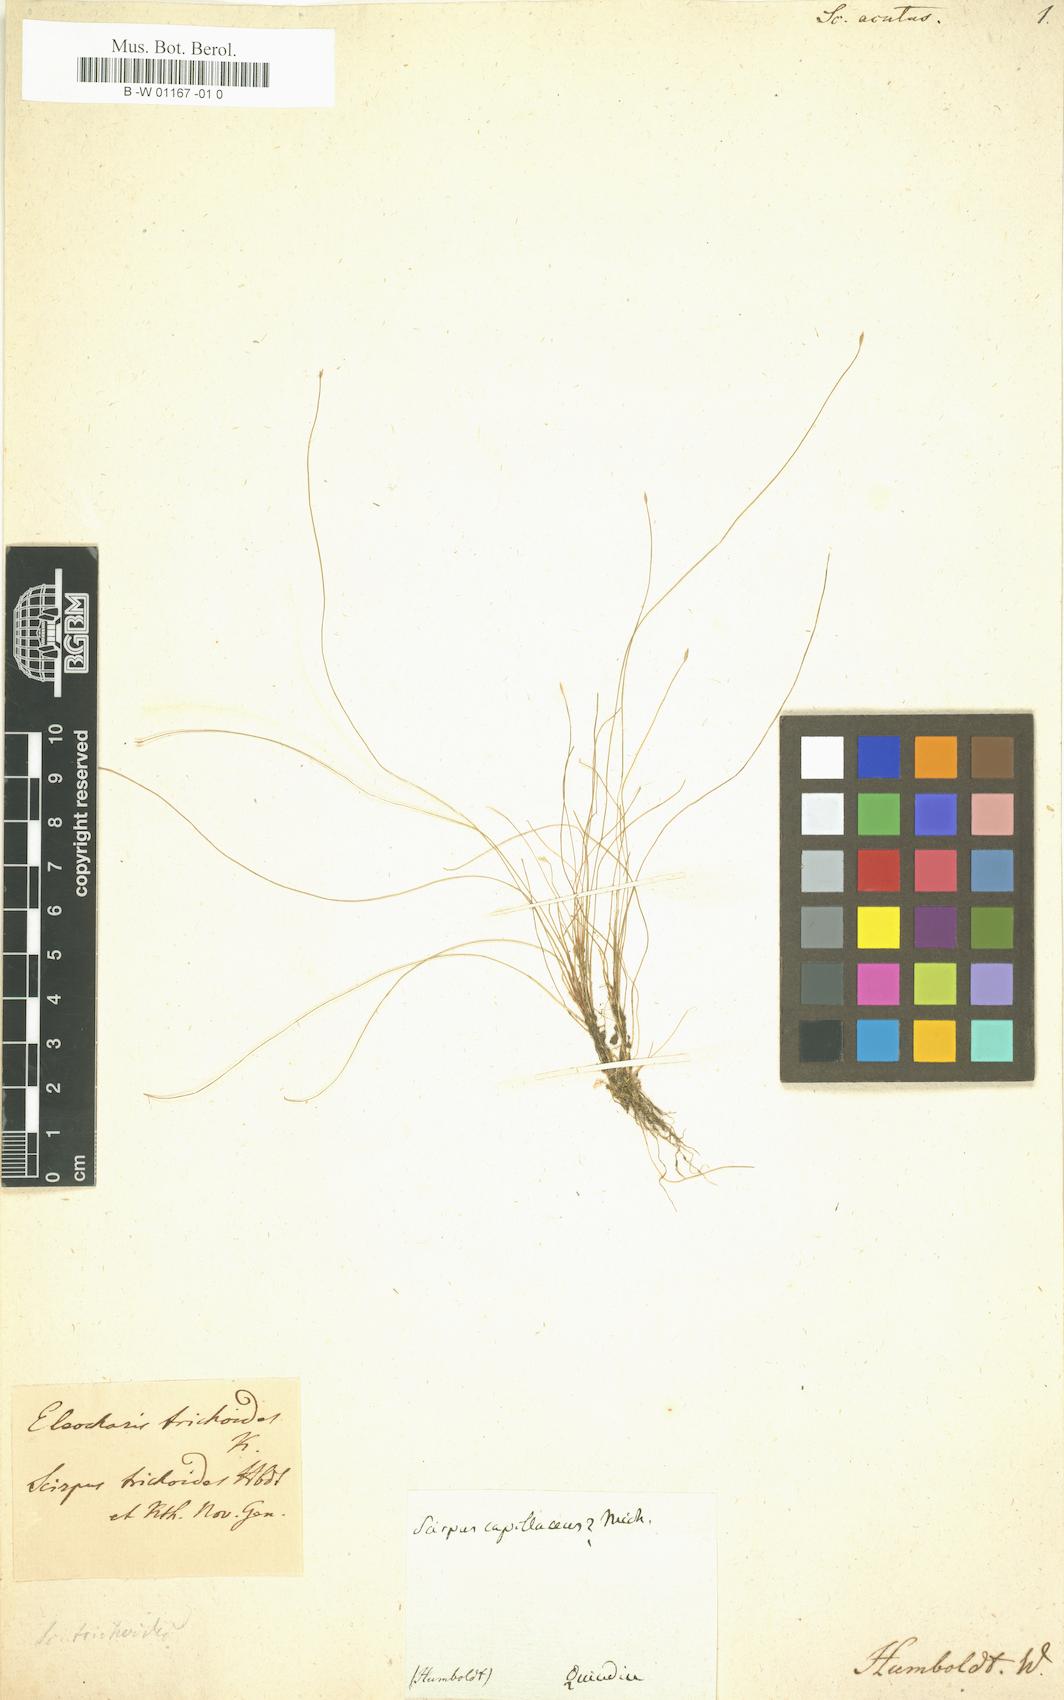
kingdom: Plantae
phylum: Tracheophyta
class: Liliopsida
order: Poales
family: Cyperaceae
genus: Scirpus
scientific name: Scirpus acutus
